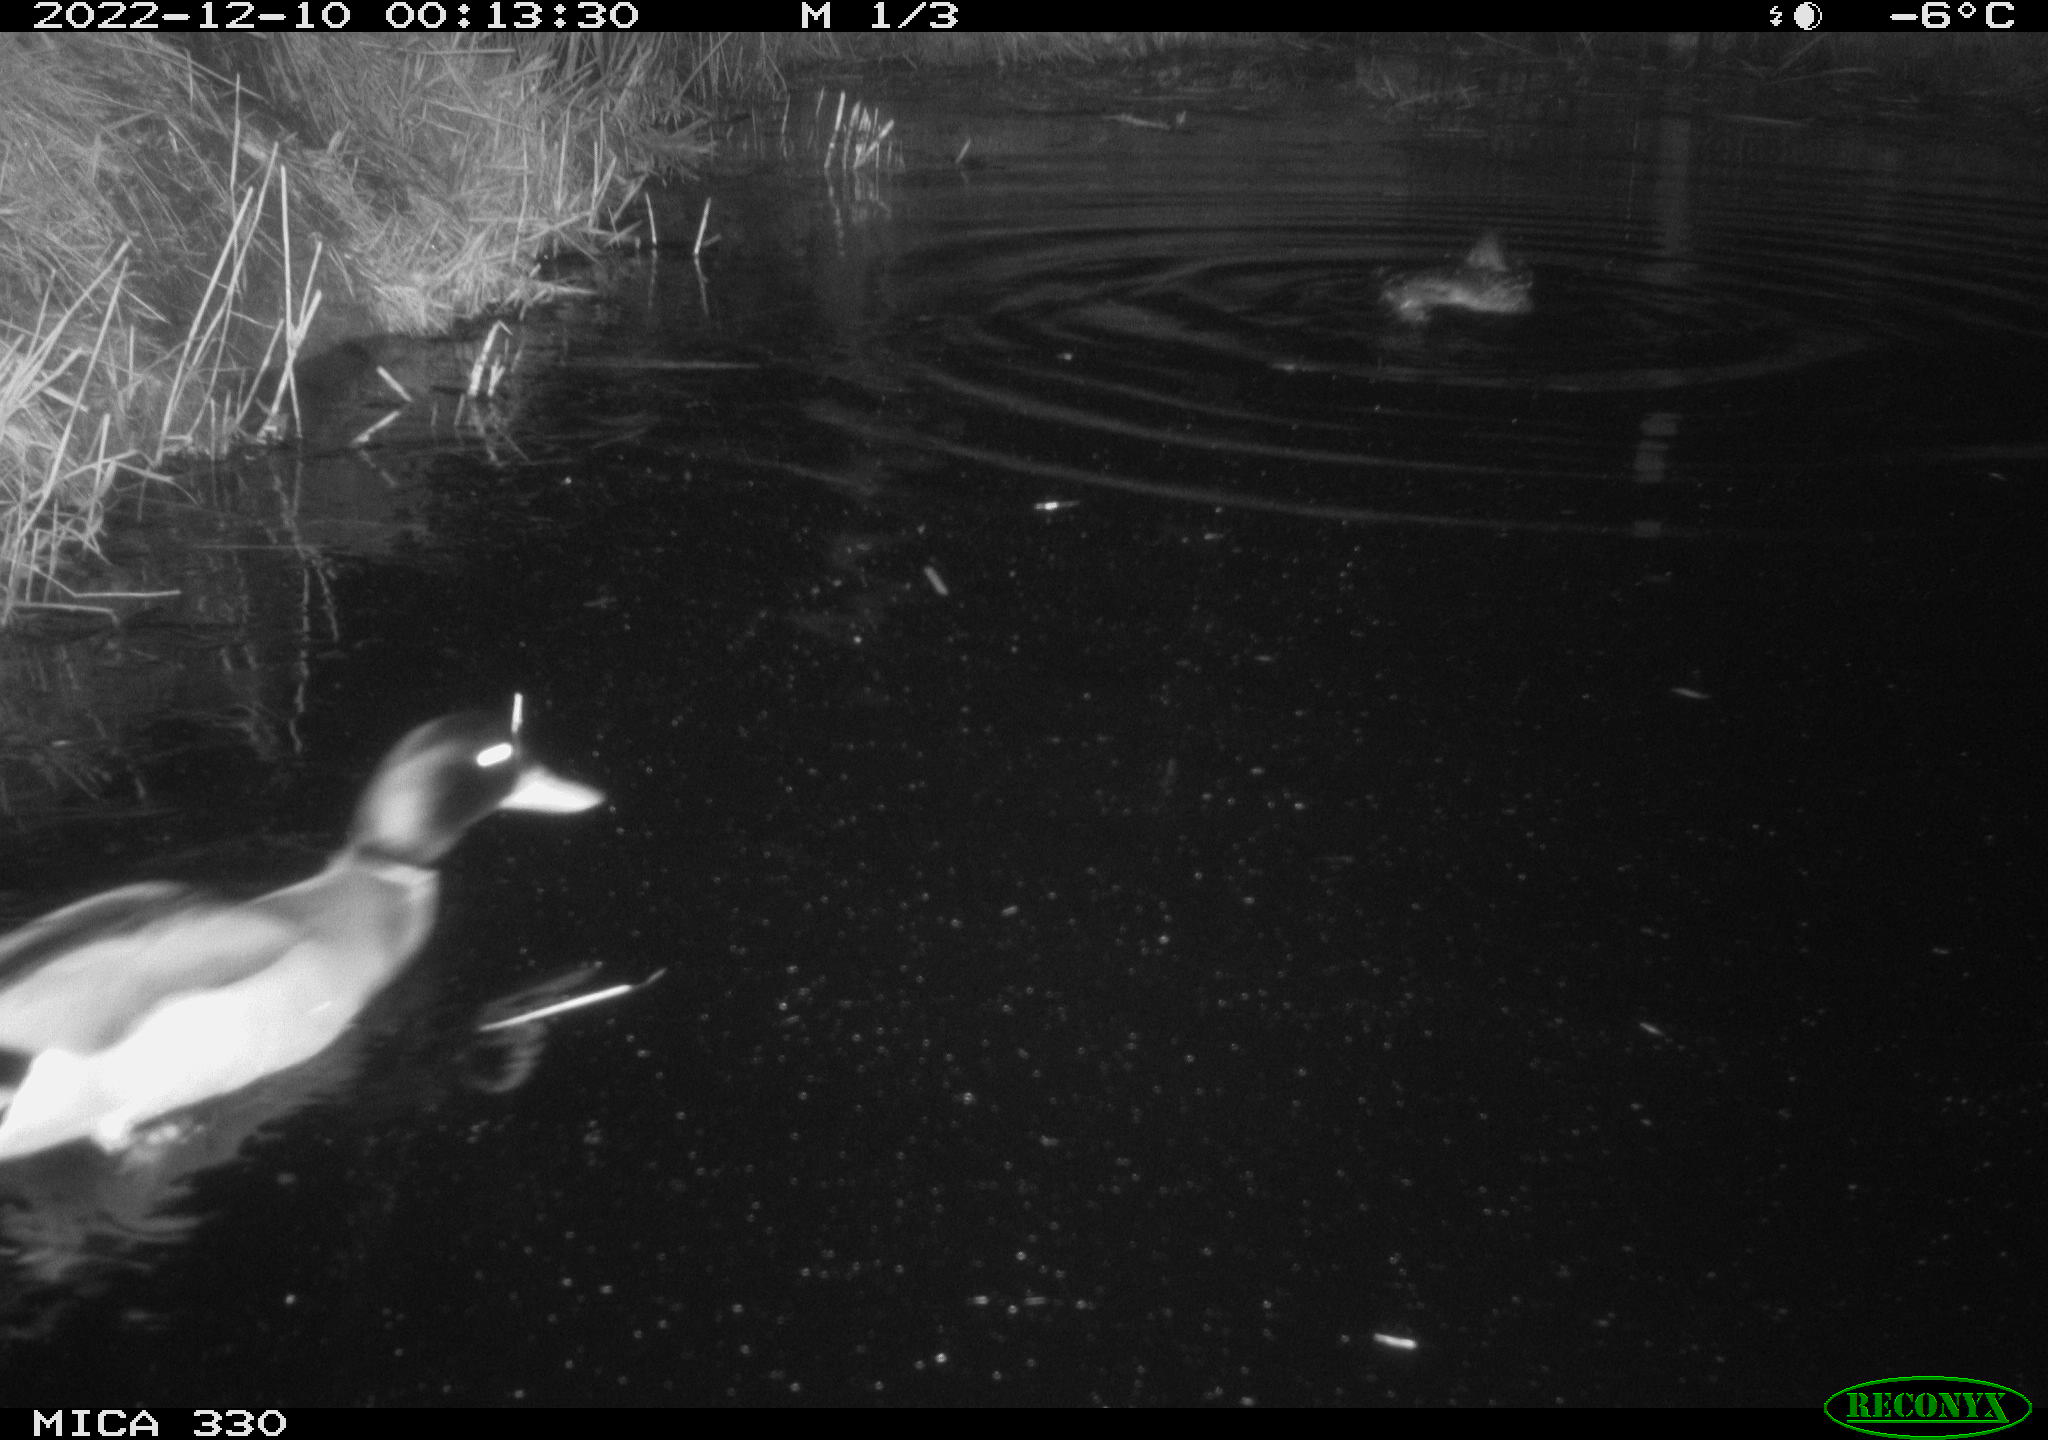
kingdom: Animalia
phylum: Chordata
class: Aves
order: Anseriformes
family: Anatidae
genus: Anas
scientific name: Anas
